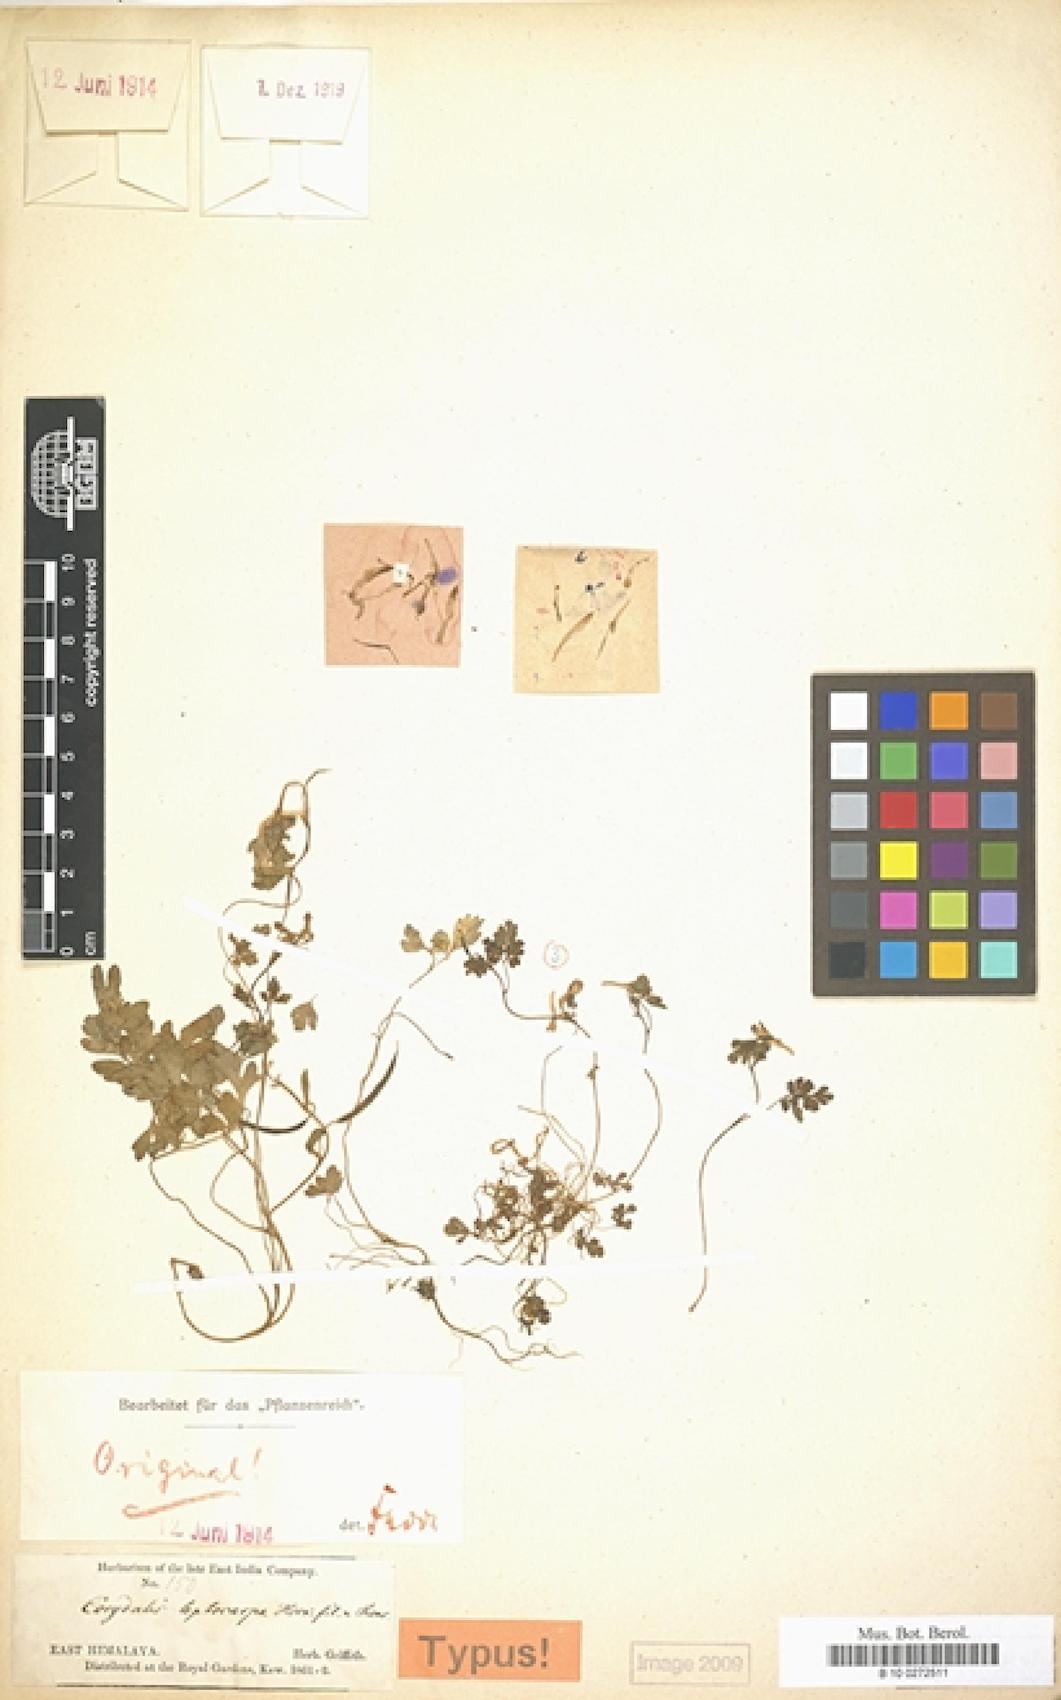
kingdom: Plantae
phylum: Tracheophyta
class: Magnoliopsida
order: Ranunculales
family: Papaveraceae
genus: Corydalis
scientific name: Corydalis leptocarpa
